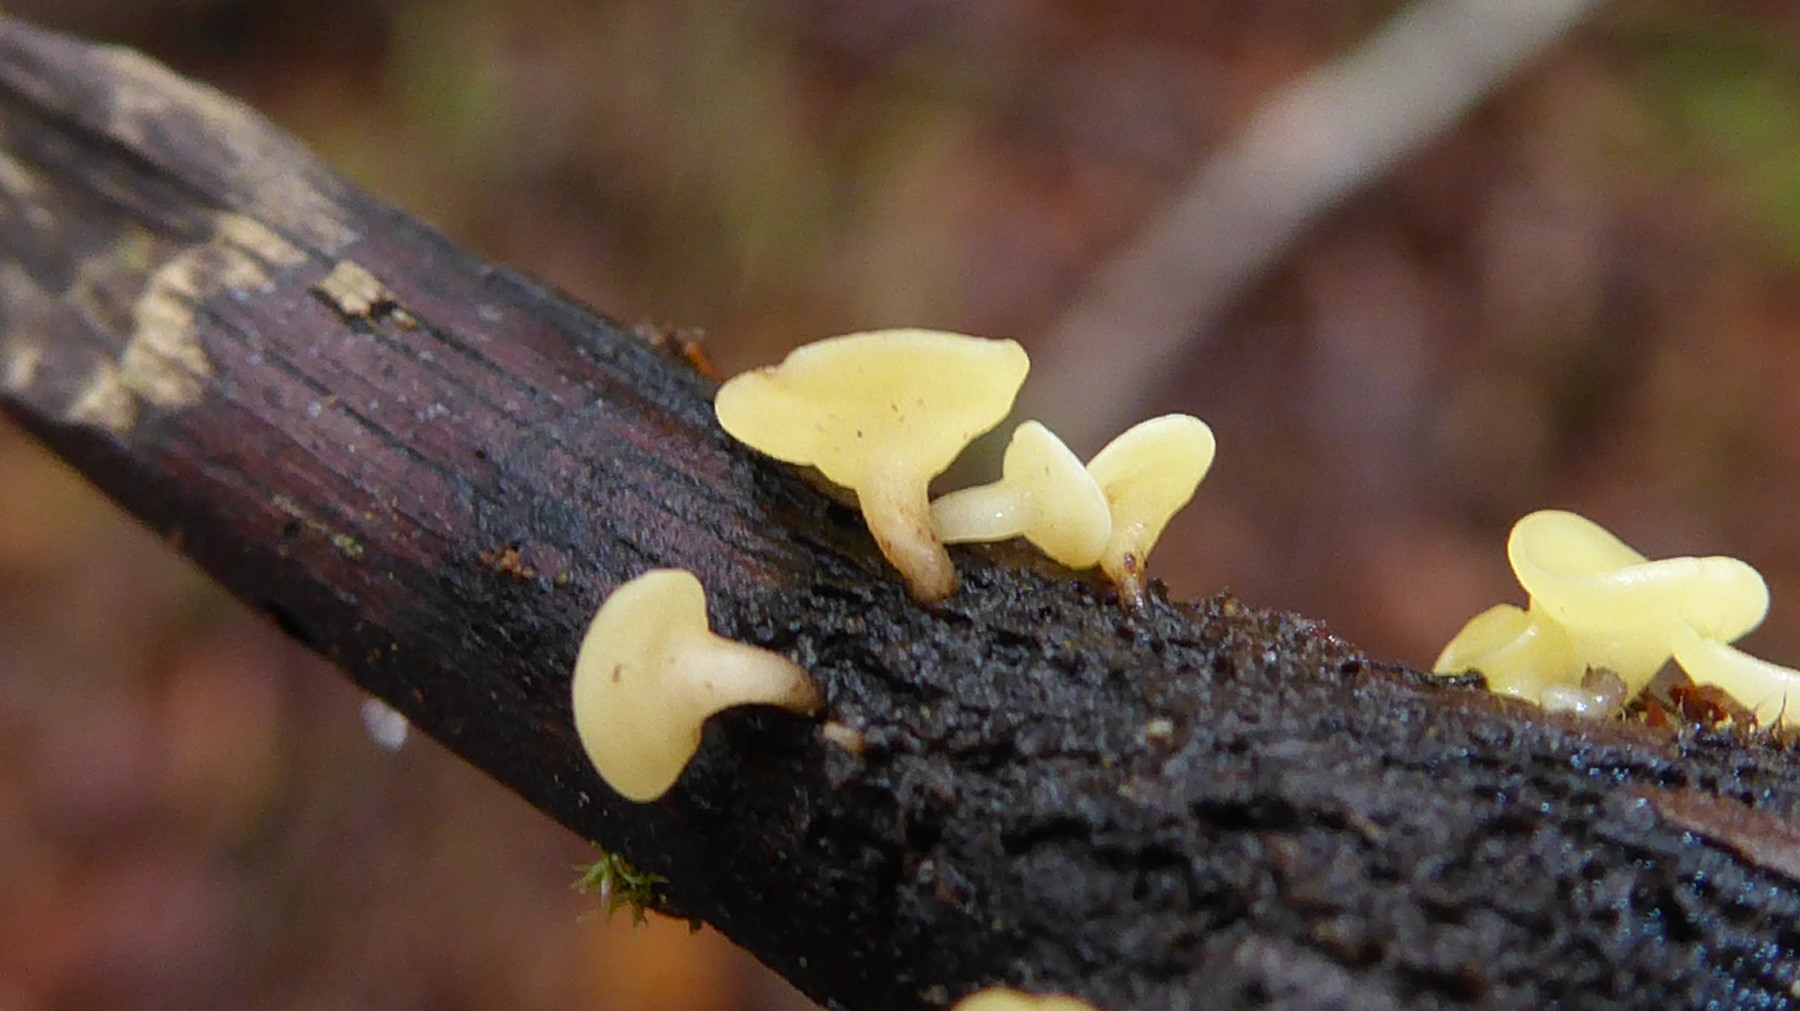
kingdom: Fungi
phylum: Ascomycota
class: Leotiomycetes
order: Helotiales
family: Helotiaceae
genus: Hymenoscyphus
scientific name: Hymenoscyphus
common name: stilkskive
